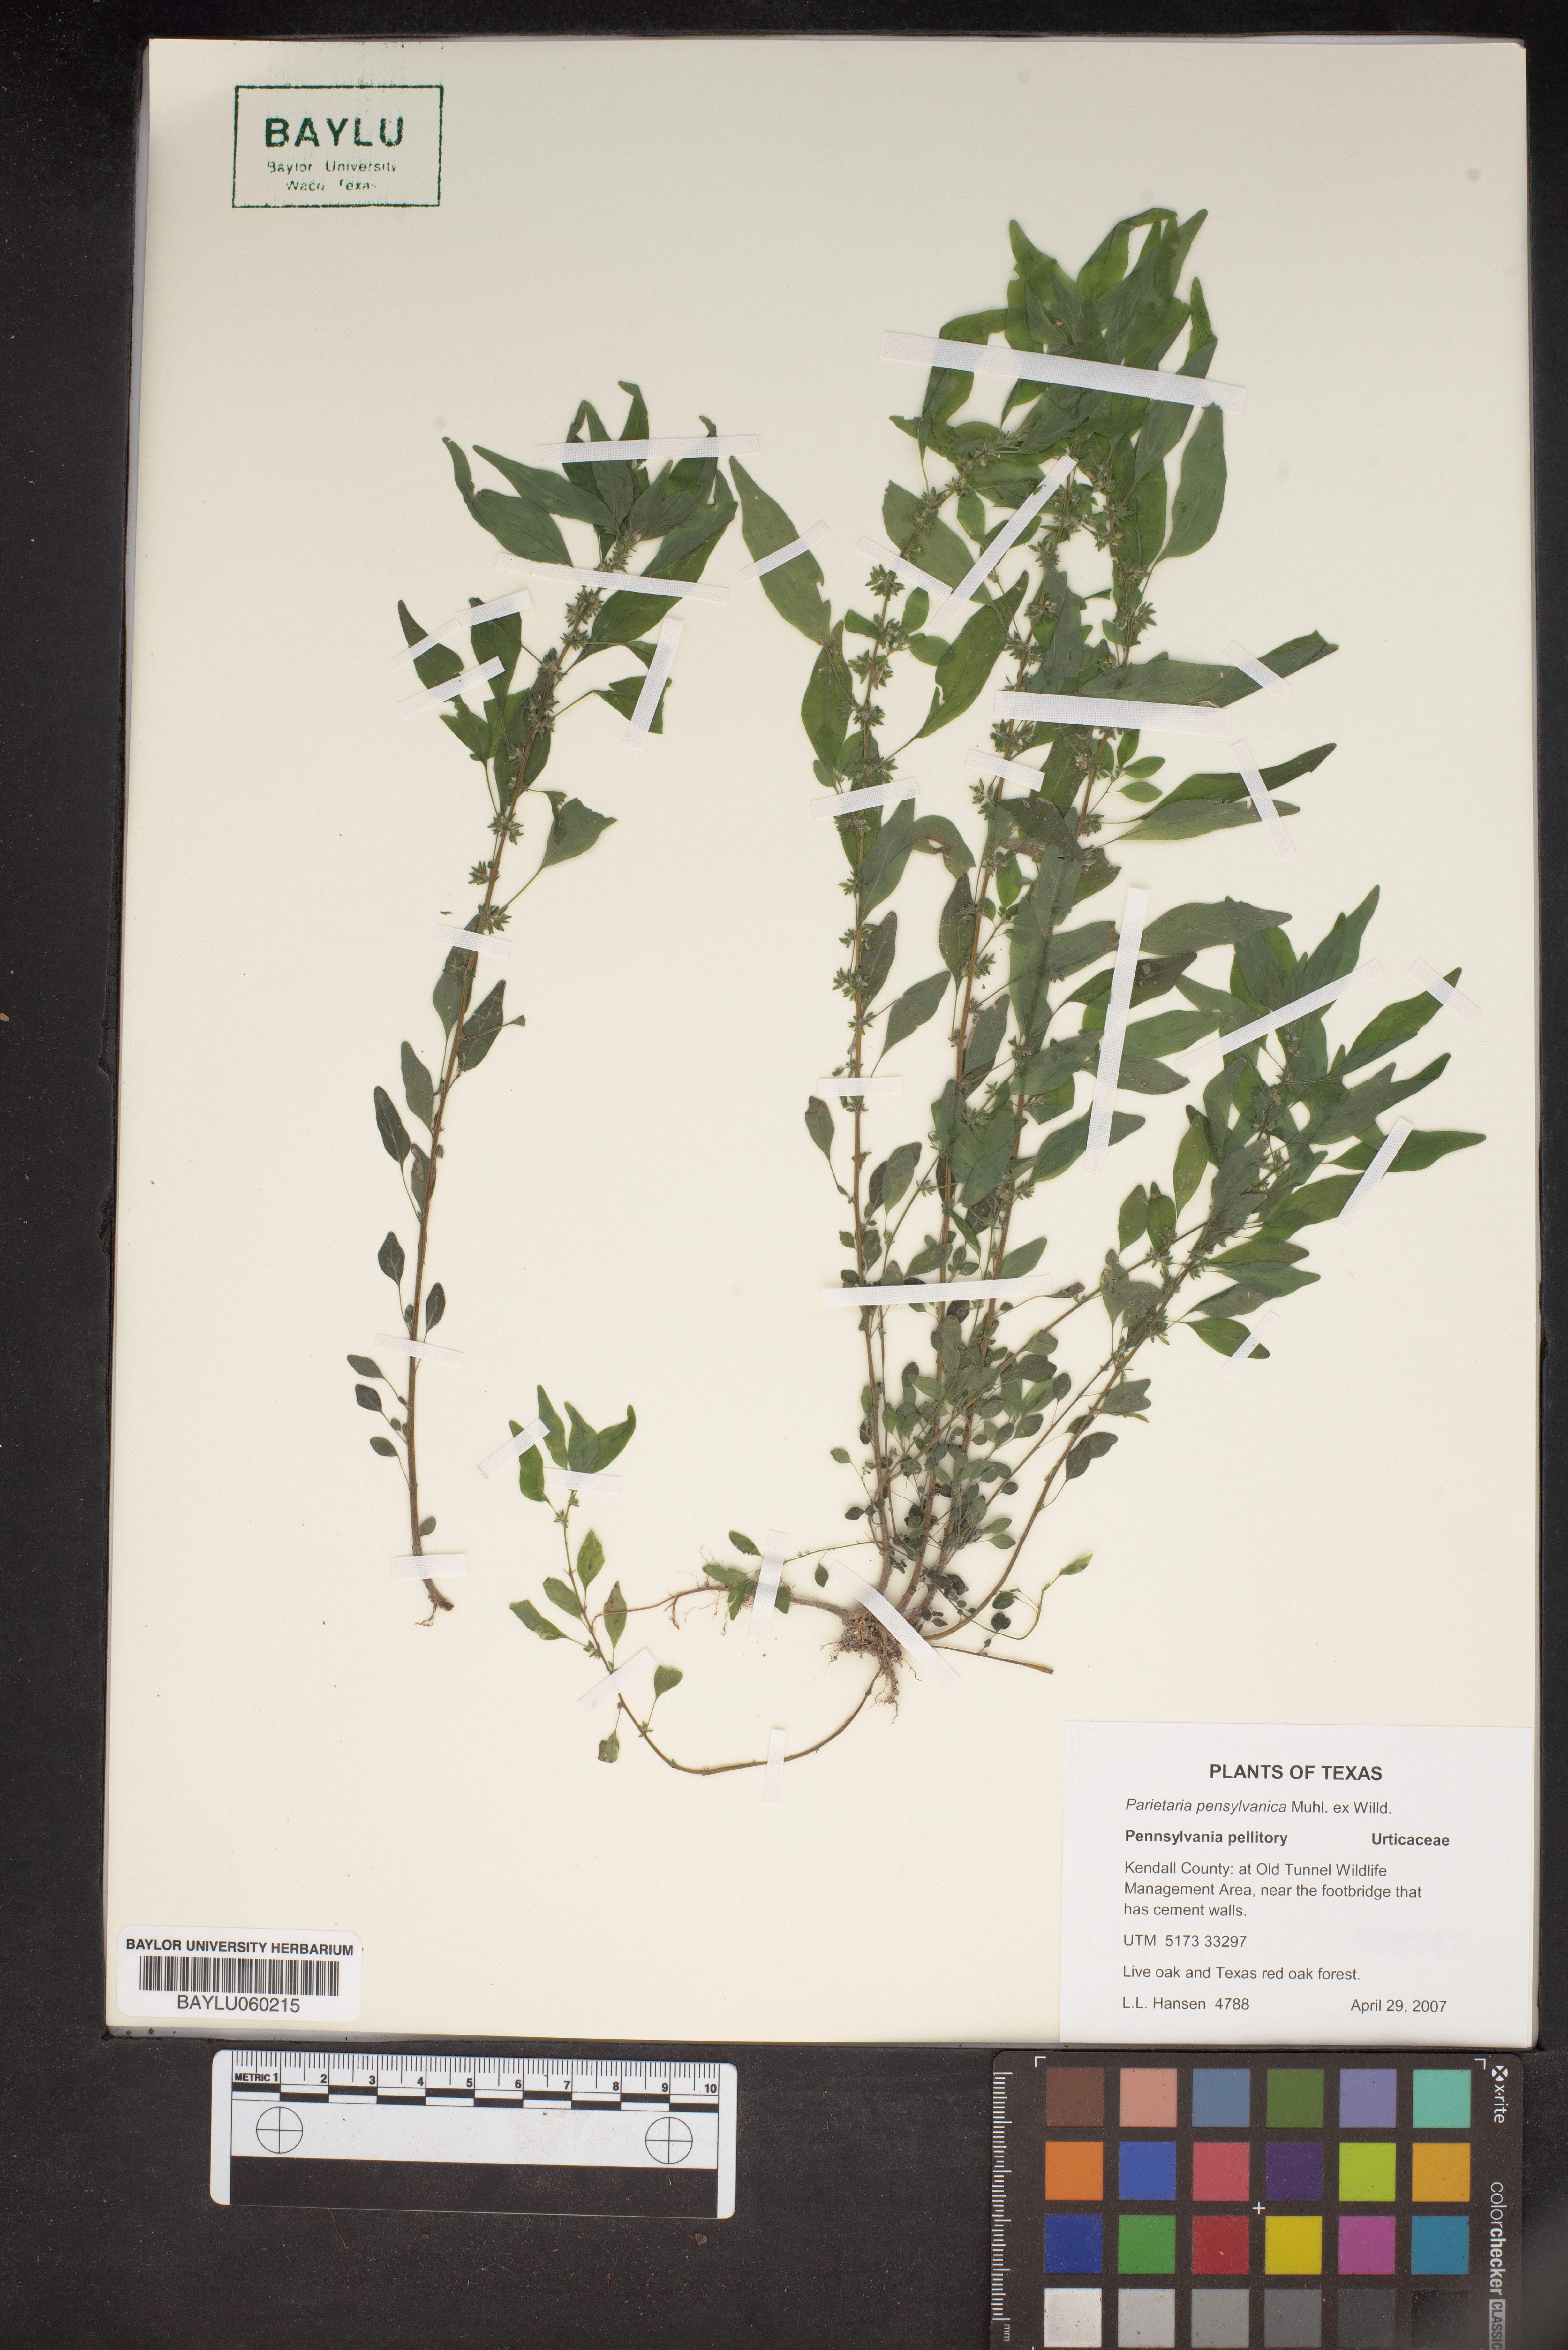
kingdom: Plantae
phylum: Tracheophyta
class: Magnoliopsida
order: Rosales
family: Urticaceae
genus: Parietaria
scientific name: Parietaria pensylvanica
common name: Pennsylvania pellitory
